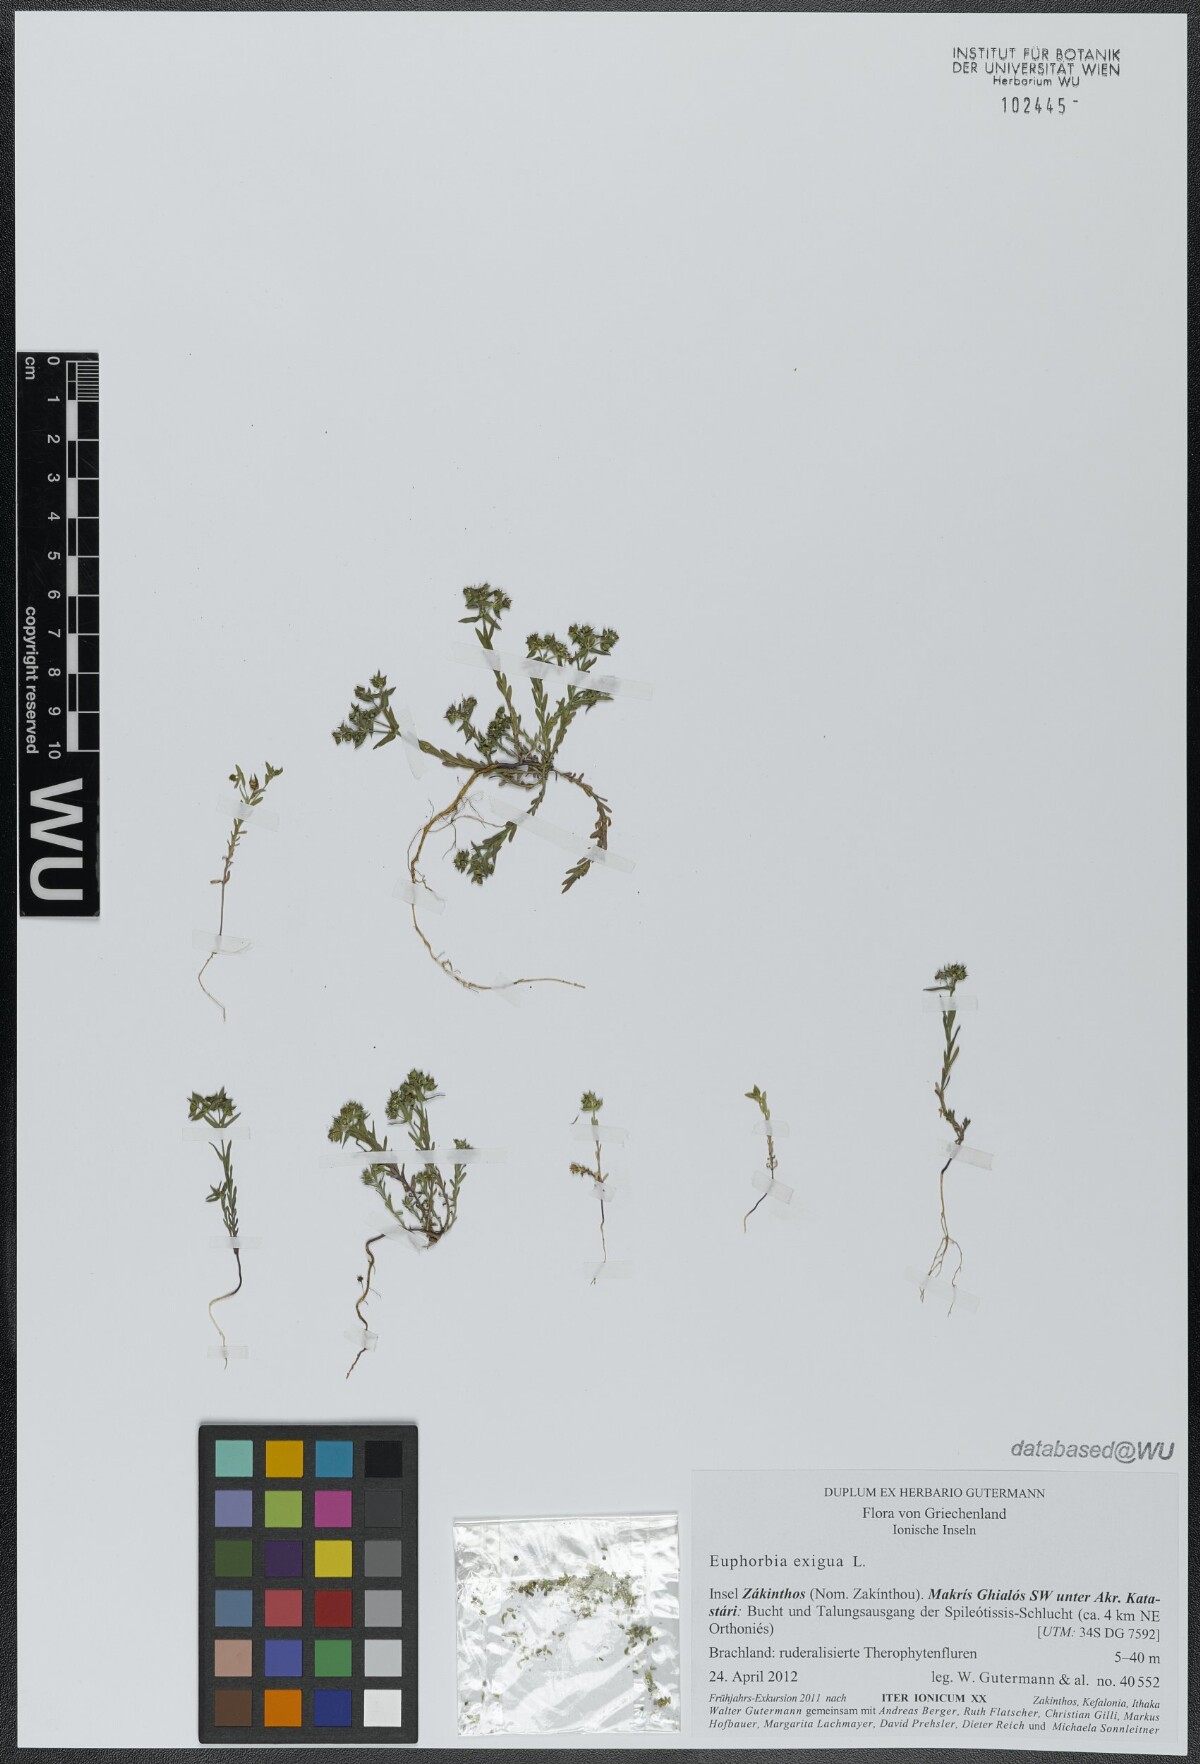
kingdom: Plantae
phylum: Tracheophyta
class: Magnoliopsida
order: Malpighiales
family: Euphorbiaceae
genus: Euphorbia
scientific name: Euphorbia exigua
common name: Dwarf spurge
